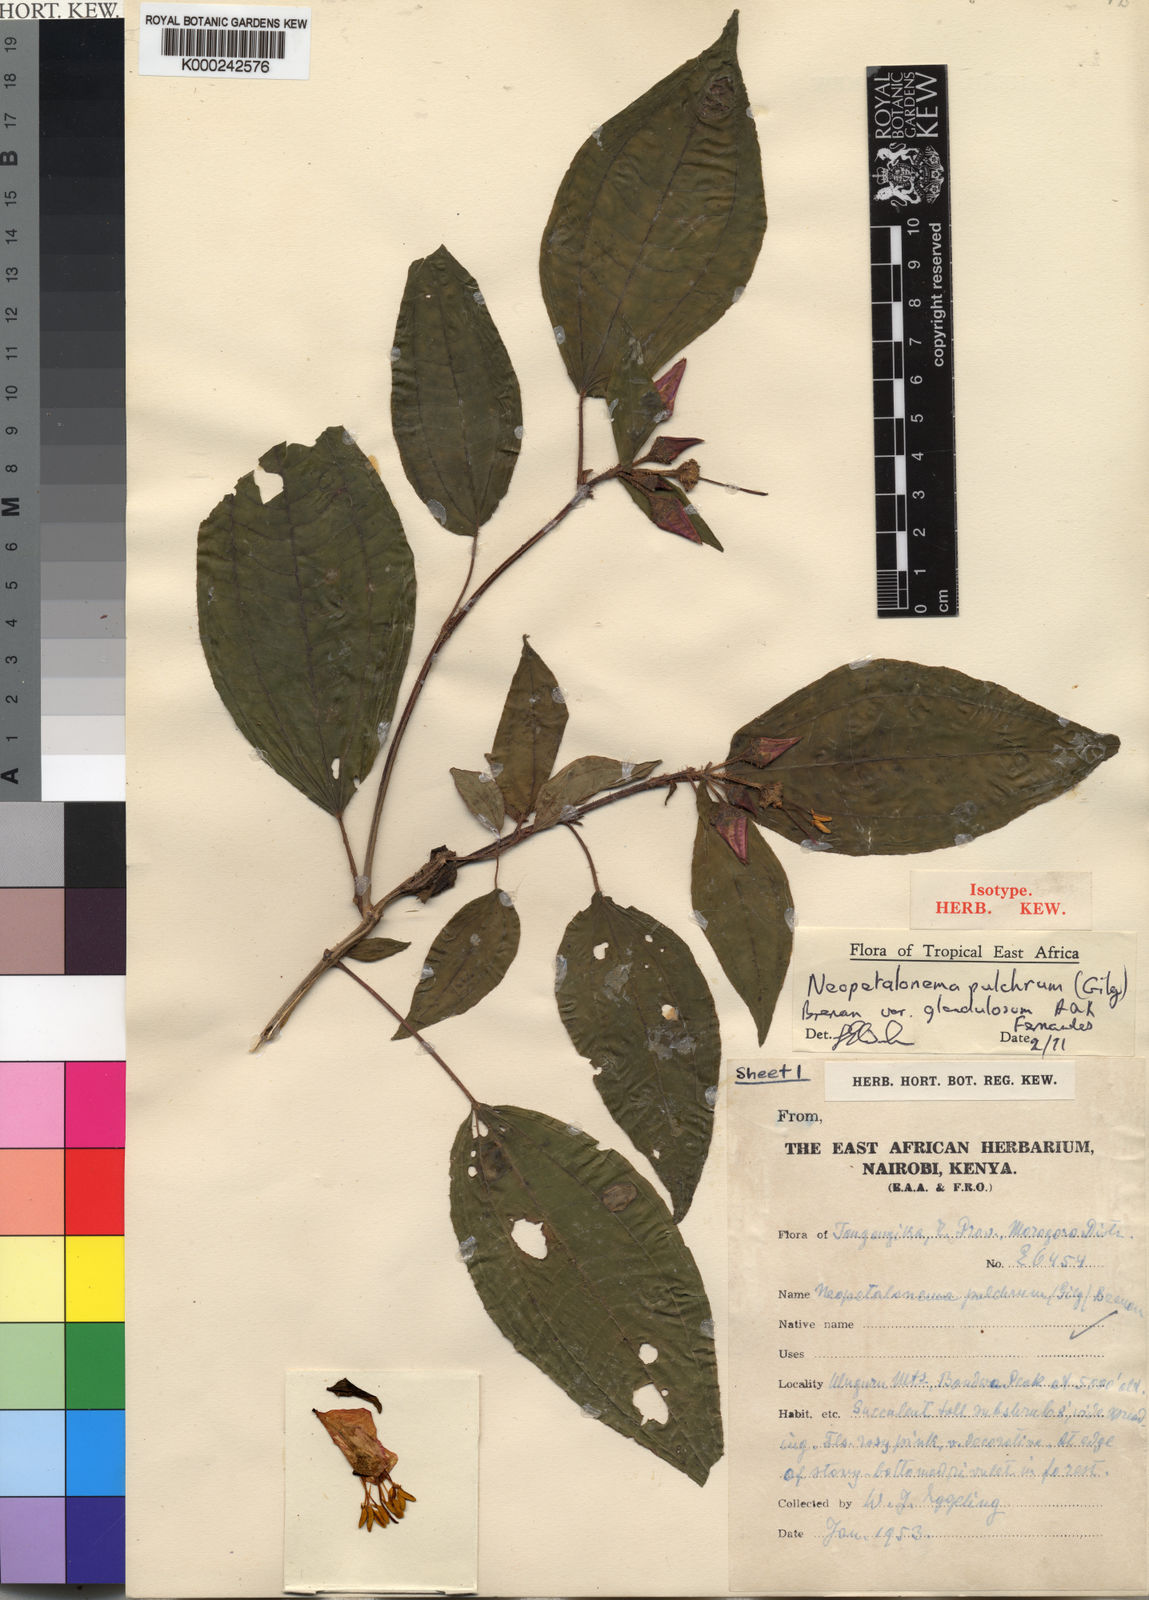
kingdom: Plantae
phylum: Tracheophyta
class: Magnoliopsida
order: Myrtales
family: Melastomataceae
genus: Gravesia
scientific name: Gravesia pulchra
